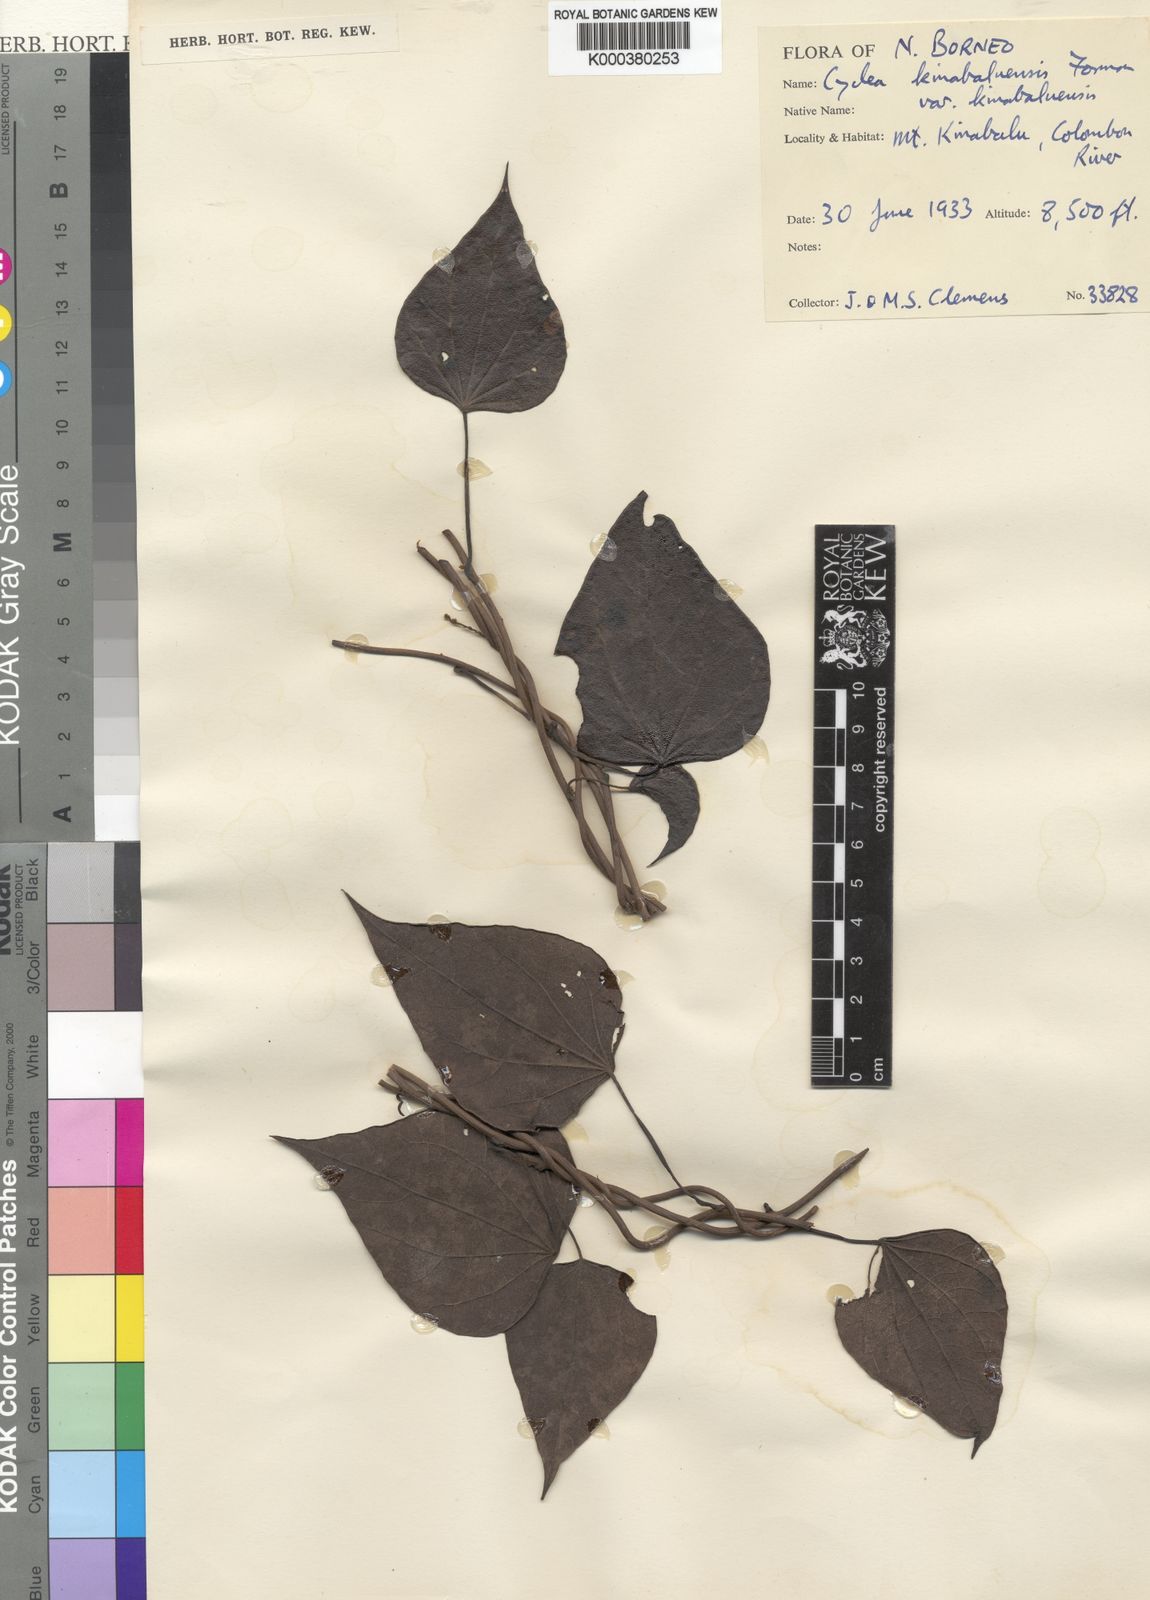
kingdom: Plantae
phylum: Tracheophyta
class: Magnoliopsida
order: Ranunculales
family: Menispermaceae
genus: Cyclea
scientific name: Cyclea kinabaluensis
